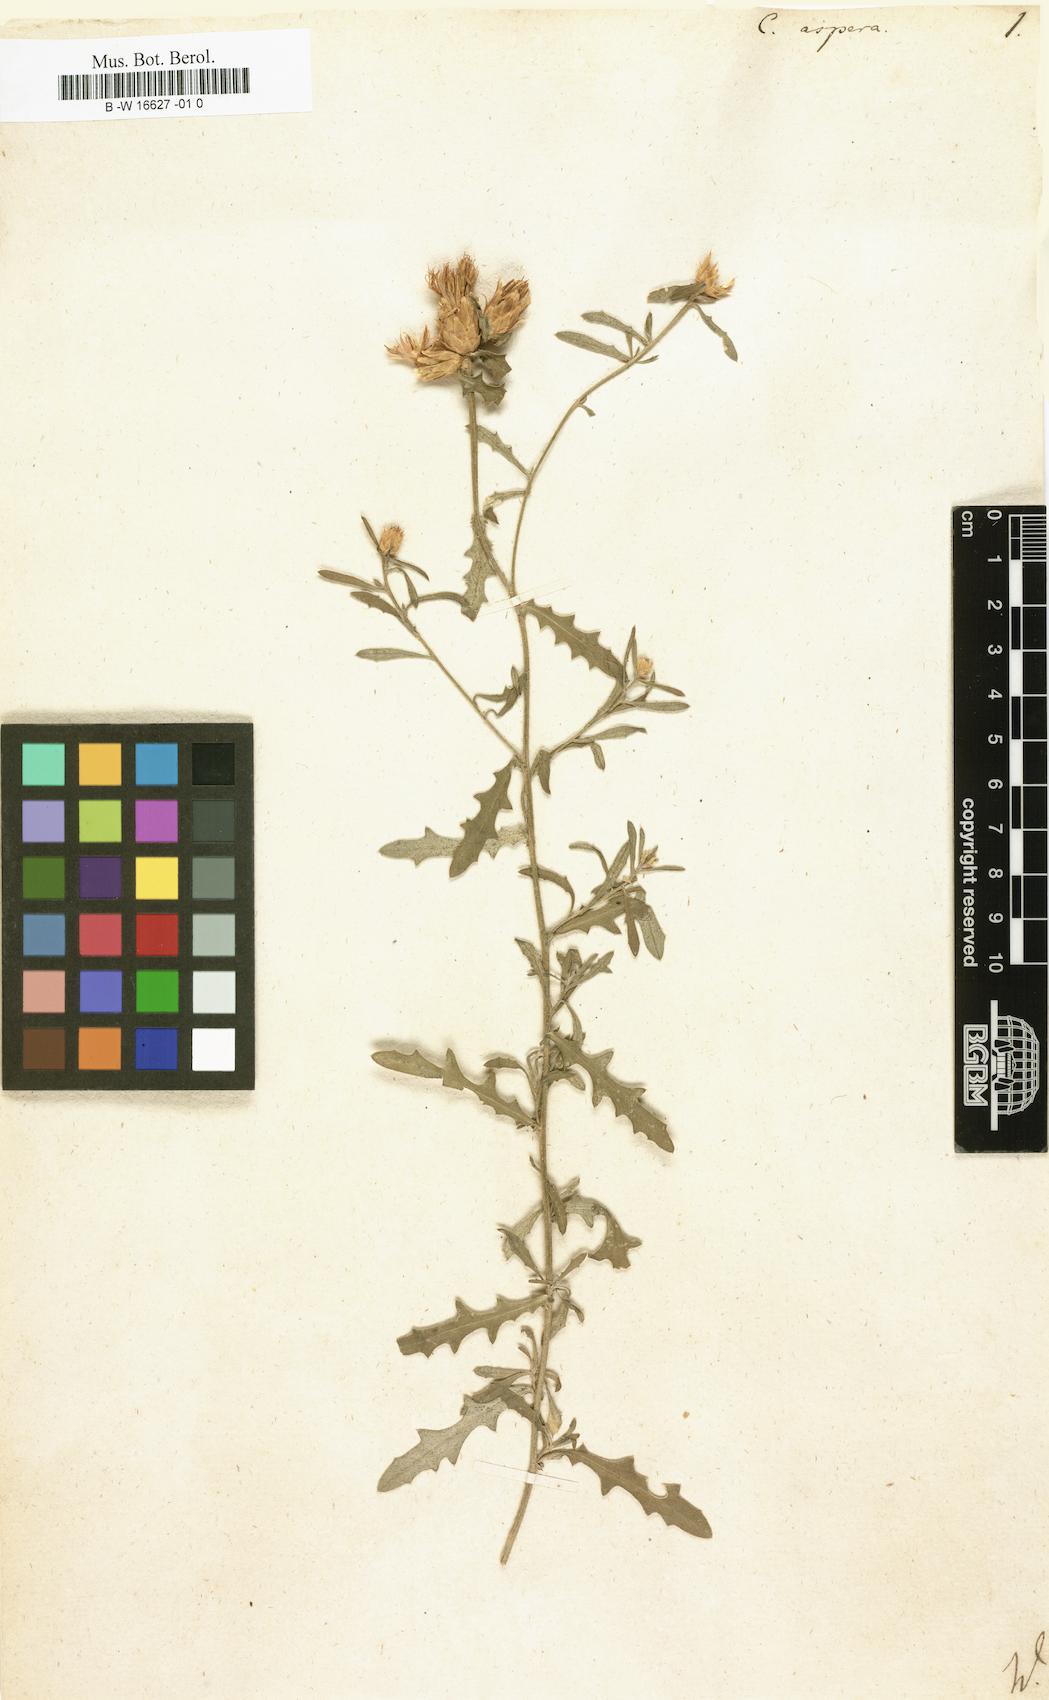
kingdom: Plantae
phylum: Tracheophyta
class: Magnoliopsida
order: Asterales
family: Asteraceae
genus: Centaurea
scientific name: Centaurea aspera
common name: Rough star-thistle
